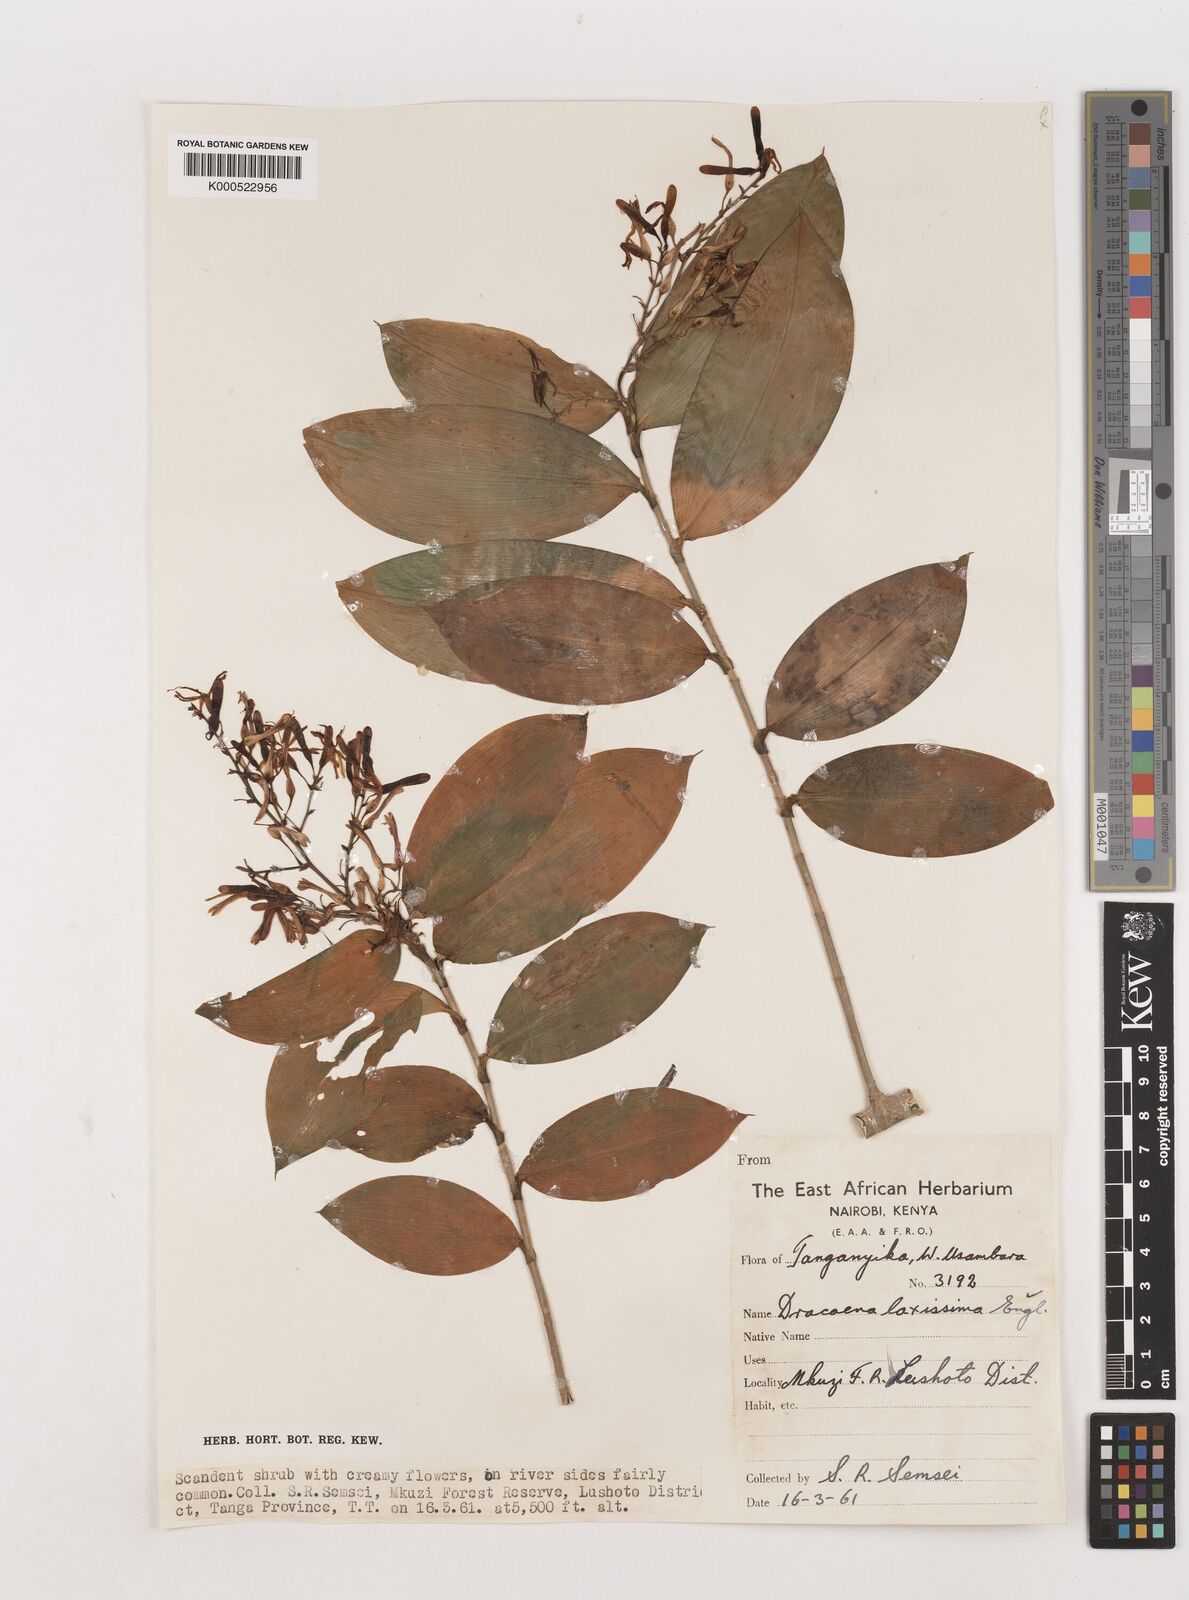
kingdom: Plantae
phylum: Tracheophyta
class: Liliopsida
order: Asparagales
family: Asparagaceae
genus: Dracaena
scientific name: Dracaena laxissima
